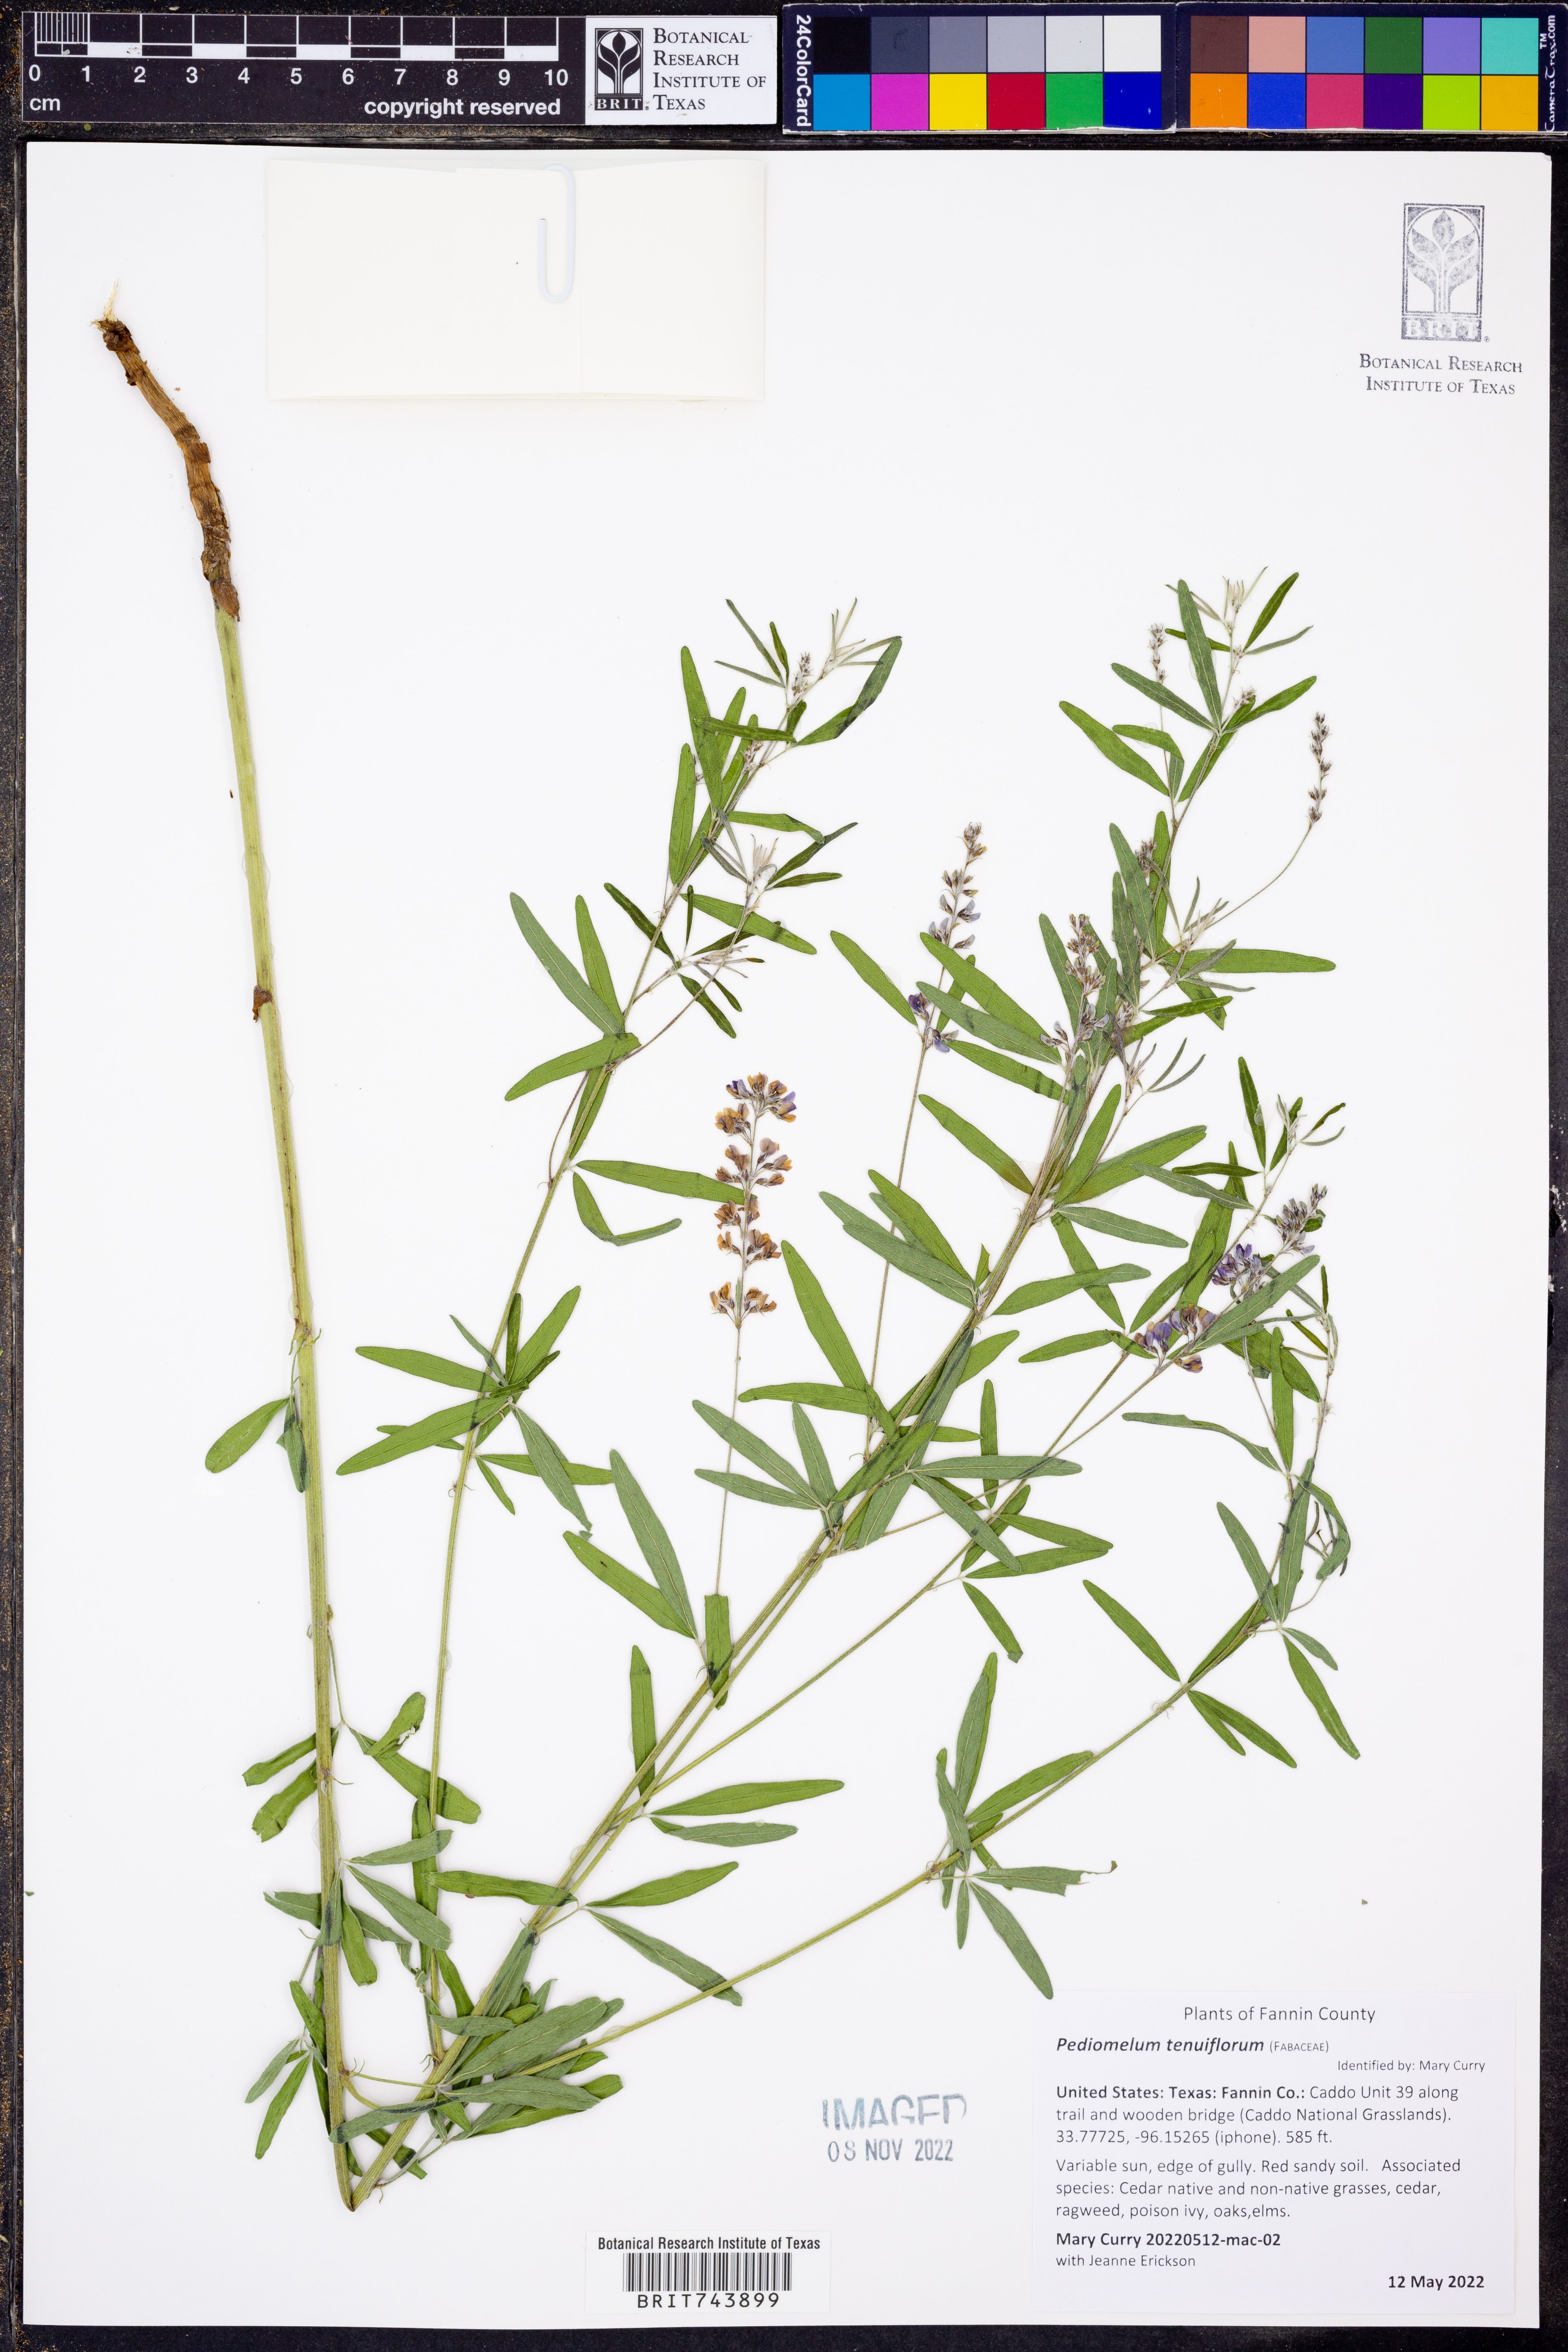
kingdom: Plantae
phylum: Tracheophyta
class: Magnoliopsida
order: Fabales
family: Fabaceae
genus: Pediomelum
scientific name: Pediomelum tenuiflorum
